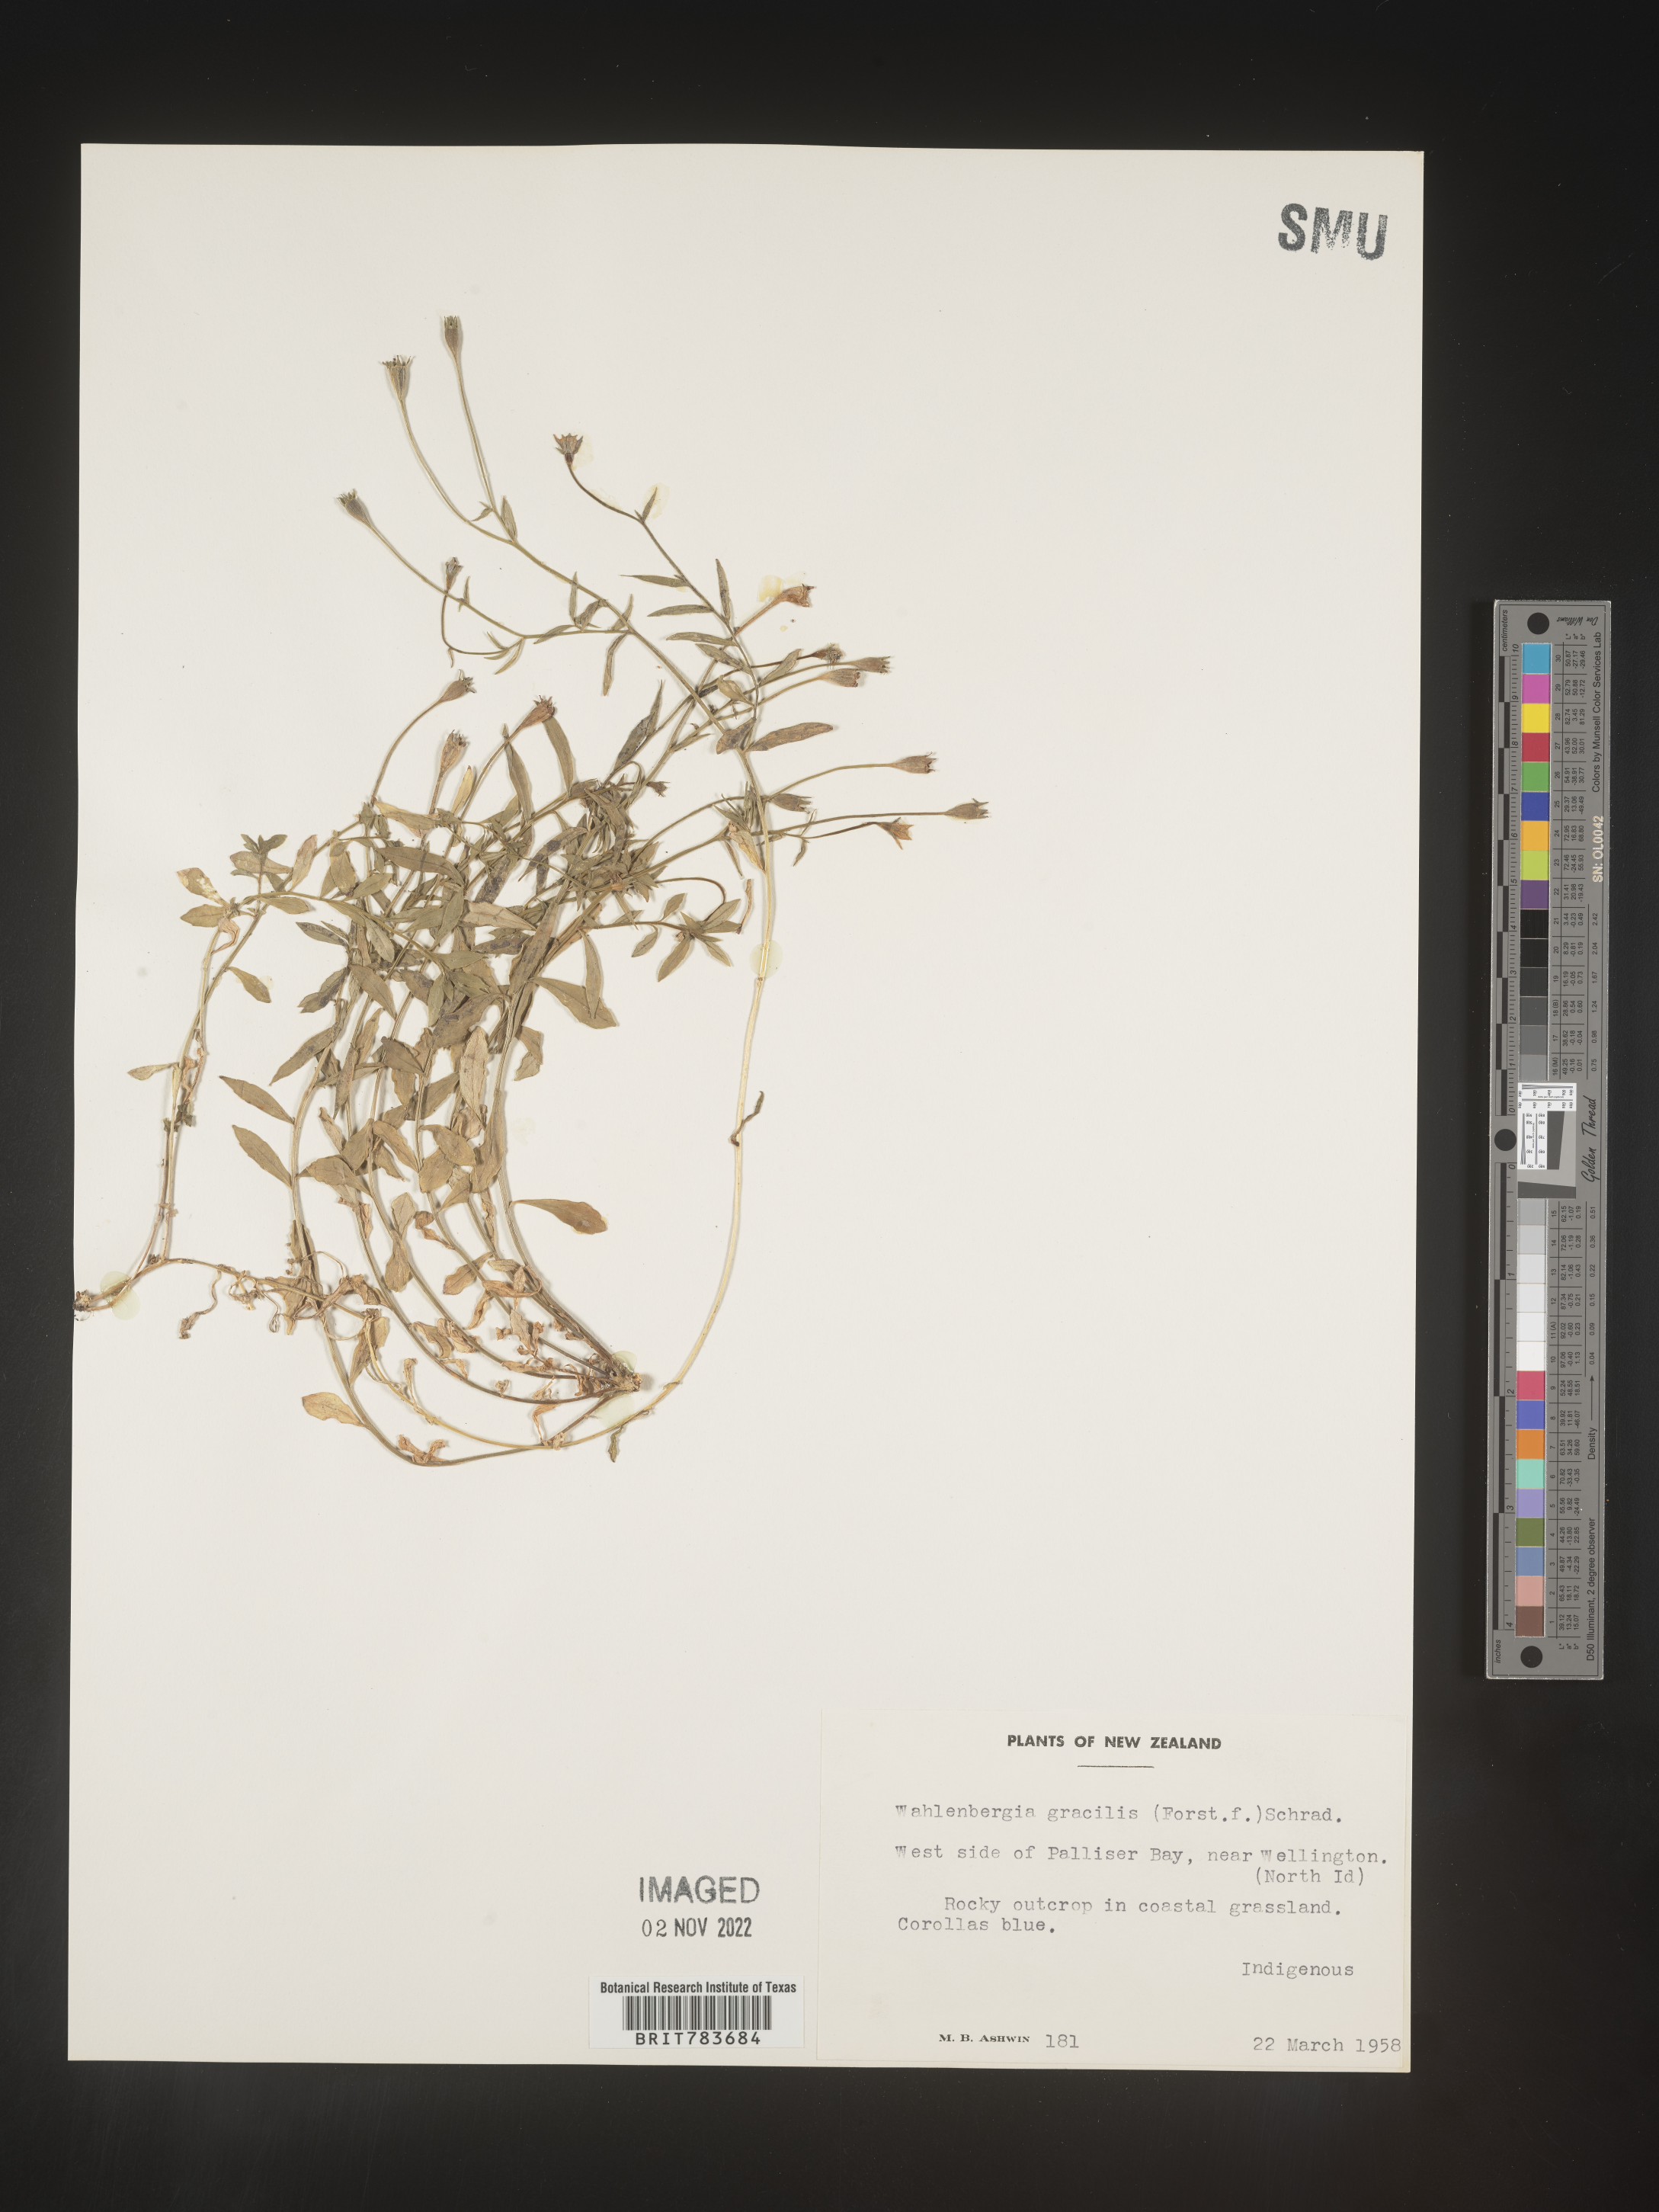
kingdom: Plantae
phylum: Tracheophyta
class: Magnoliopsida
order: Asterales
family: Campanulaceae
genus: Wahlenbergia
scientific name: Wahlenbergia
